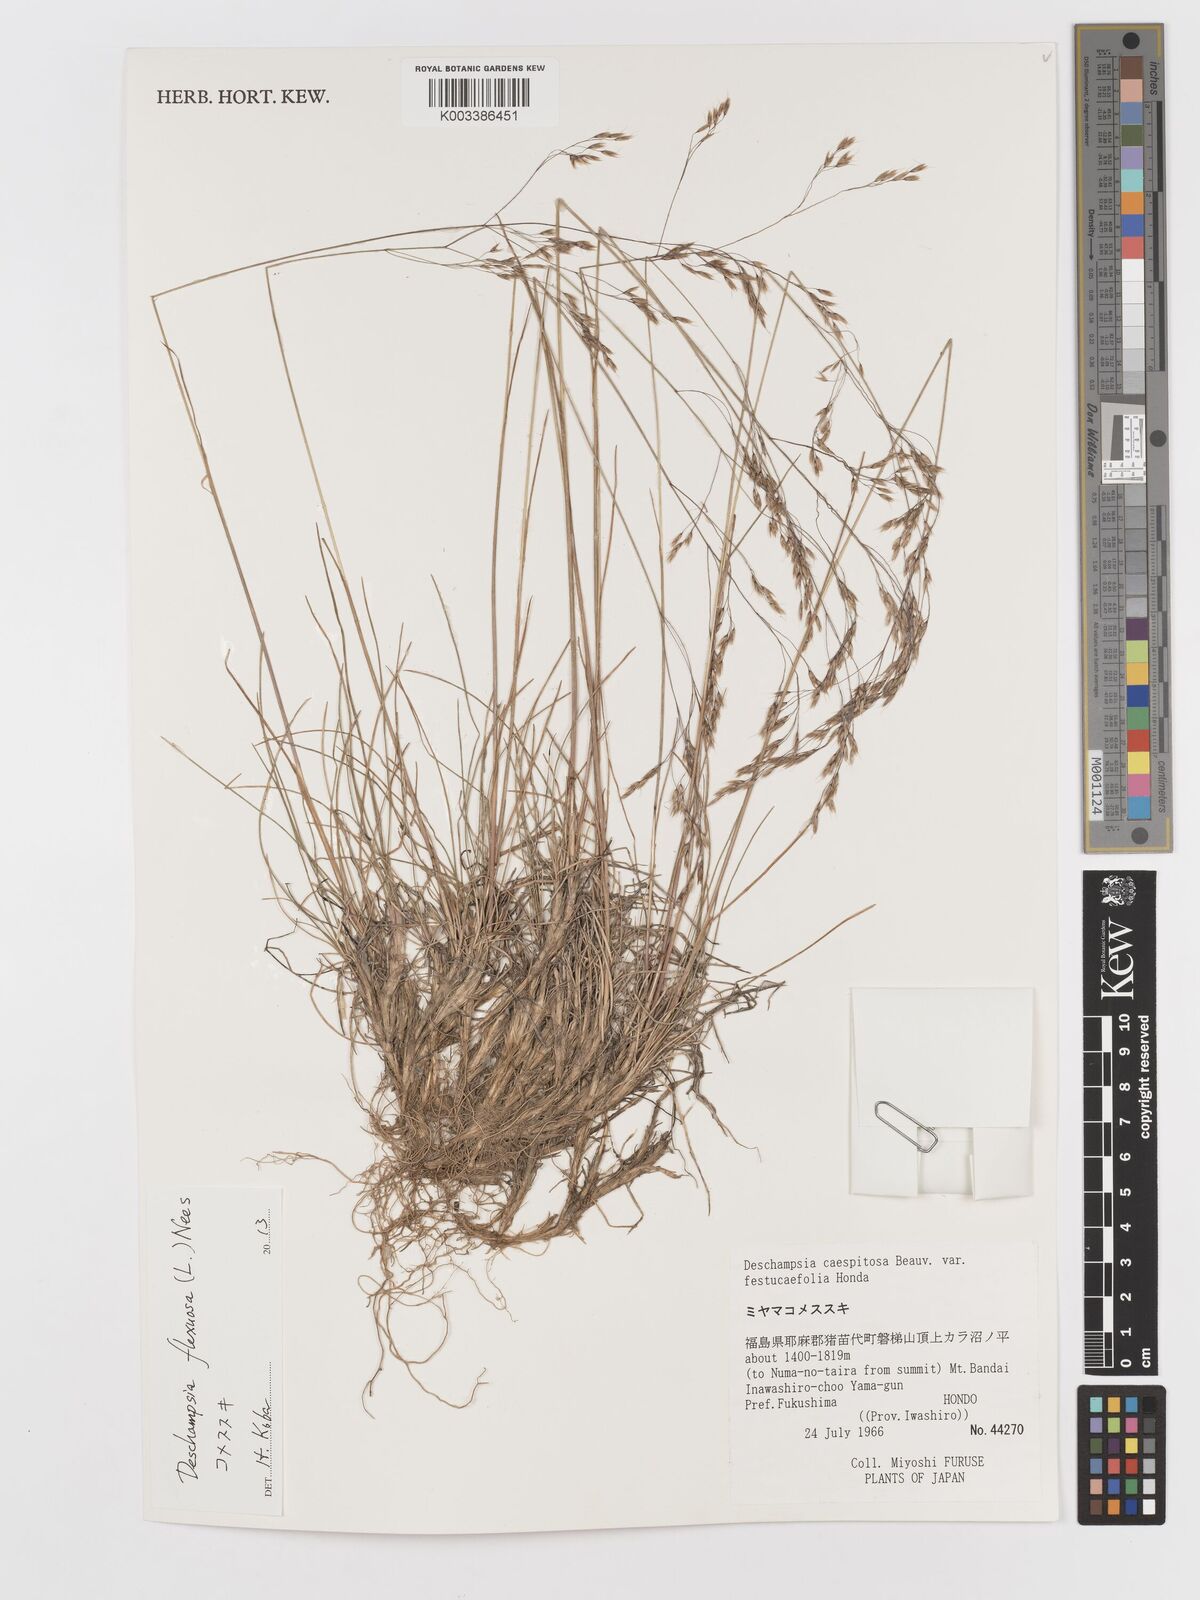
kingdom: Plantae
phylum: Tracheophyta
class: Liliopsida
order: Poales
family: Poaceae
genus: Avenella
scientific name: Avenella flexuosa
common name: Wavy hairgrass
